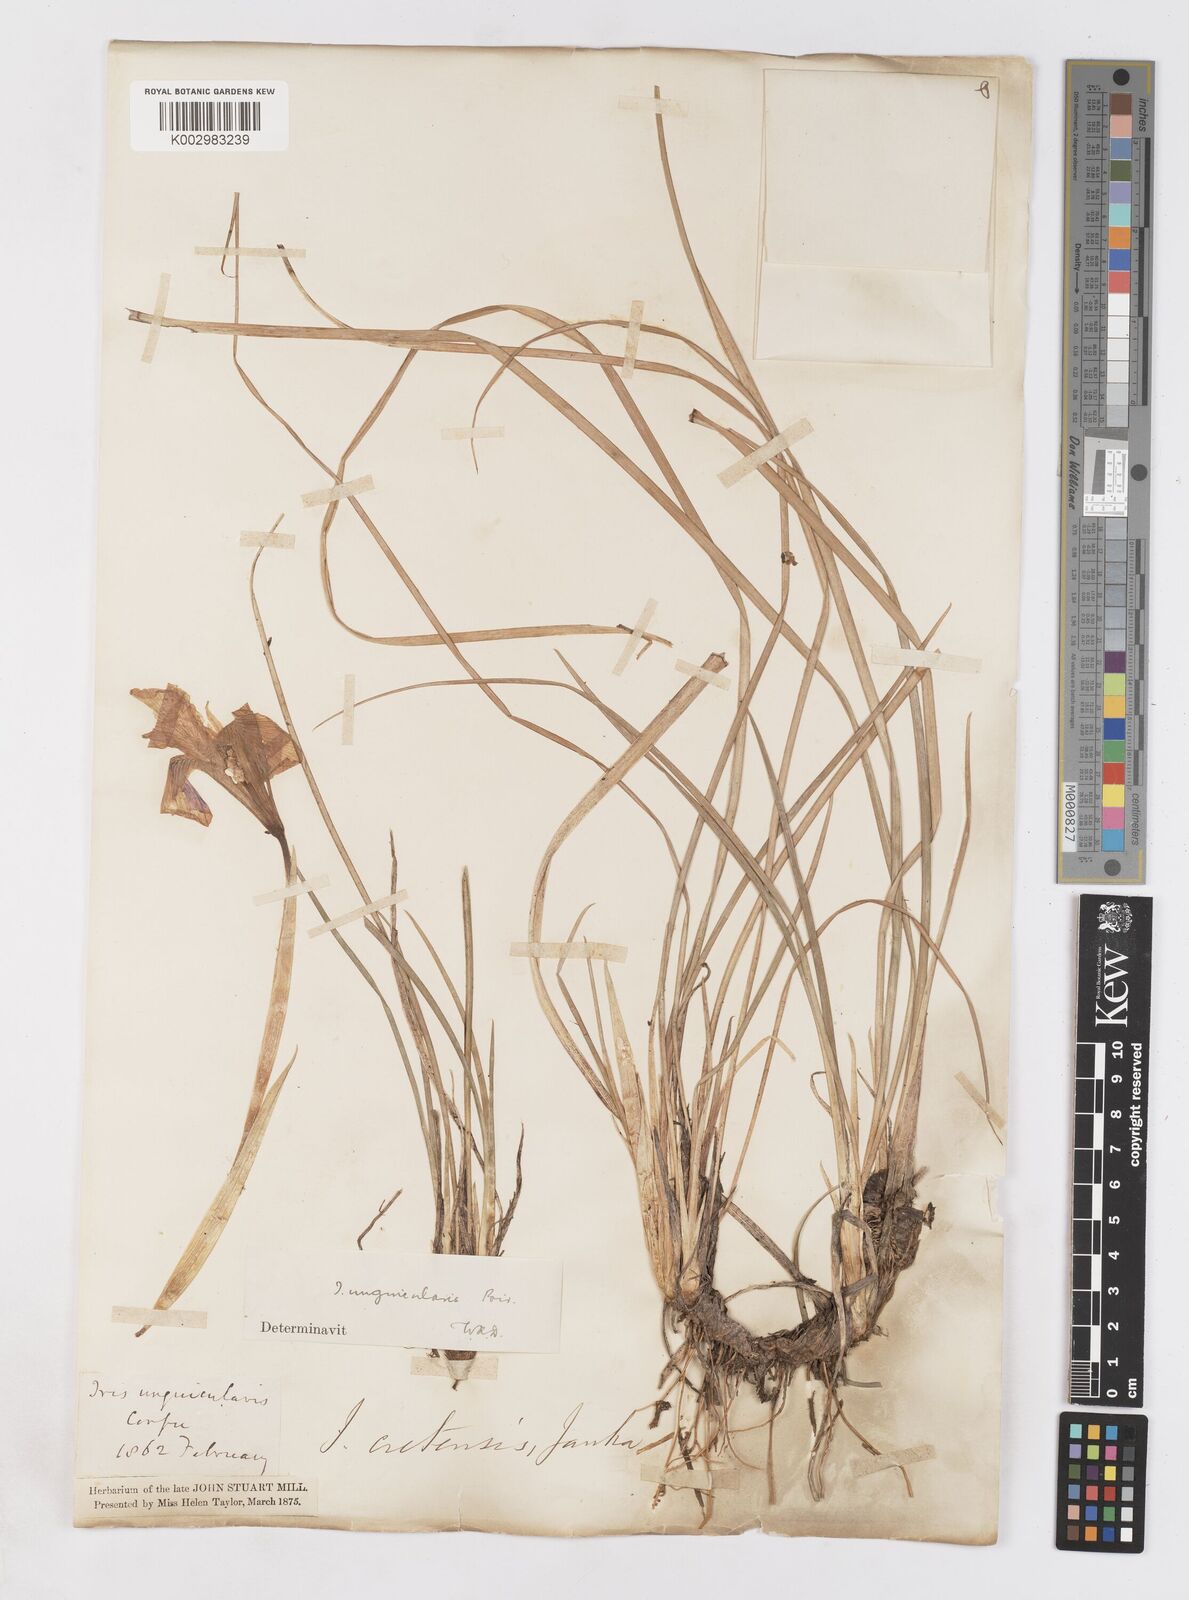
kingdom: Plantae
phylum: Tracheophyta
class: Liliopsida
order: Asparagales
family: Iridaceae
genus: Iris
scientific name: Iris unguicularis
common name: Algerian iris
